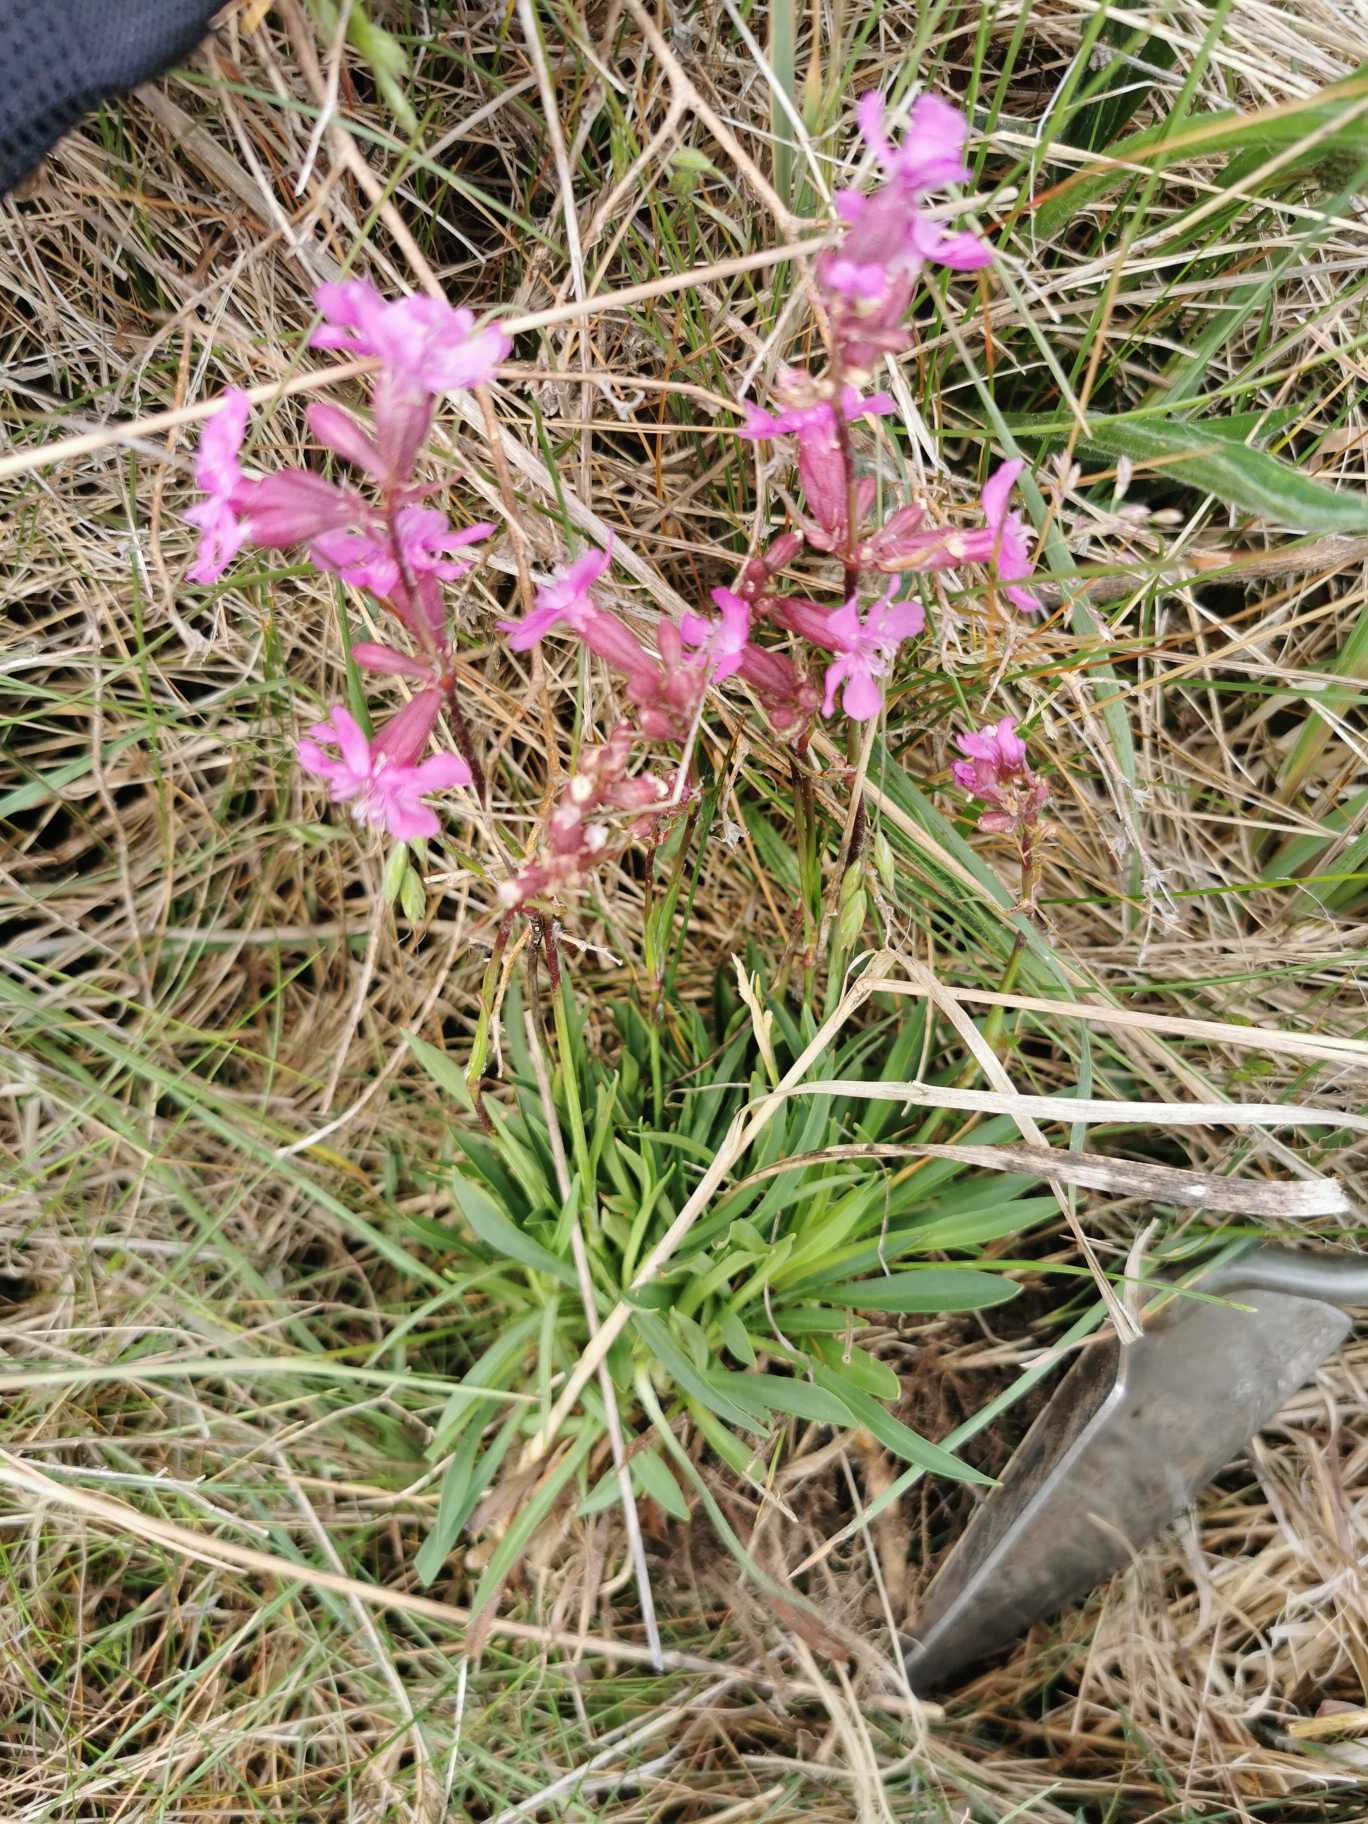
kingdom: Plantae
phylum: Tracheophyta
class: Magnoliopsida
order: Caryophyllales
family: Caryophyllaceae
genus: Viscaria
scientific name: Viscaria vulgaris
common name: Tjærenellike
